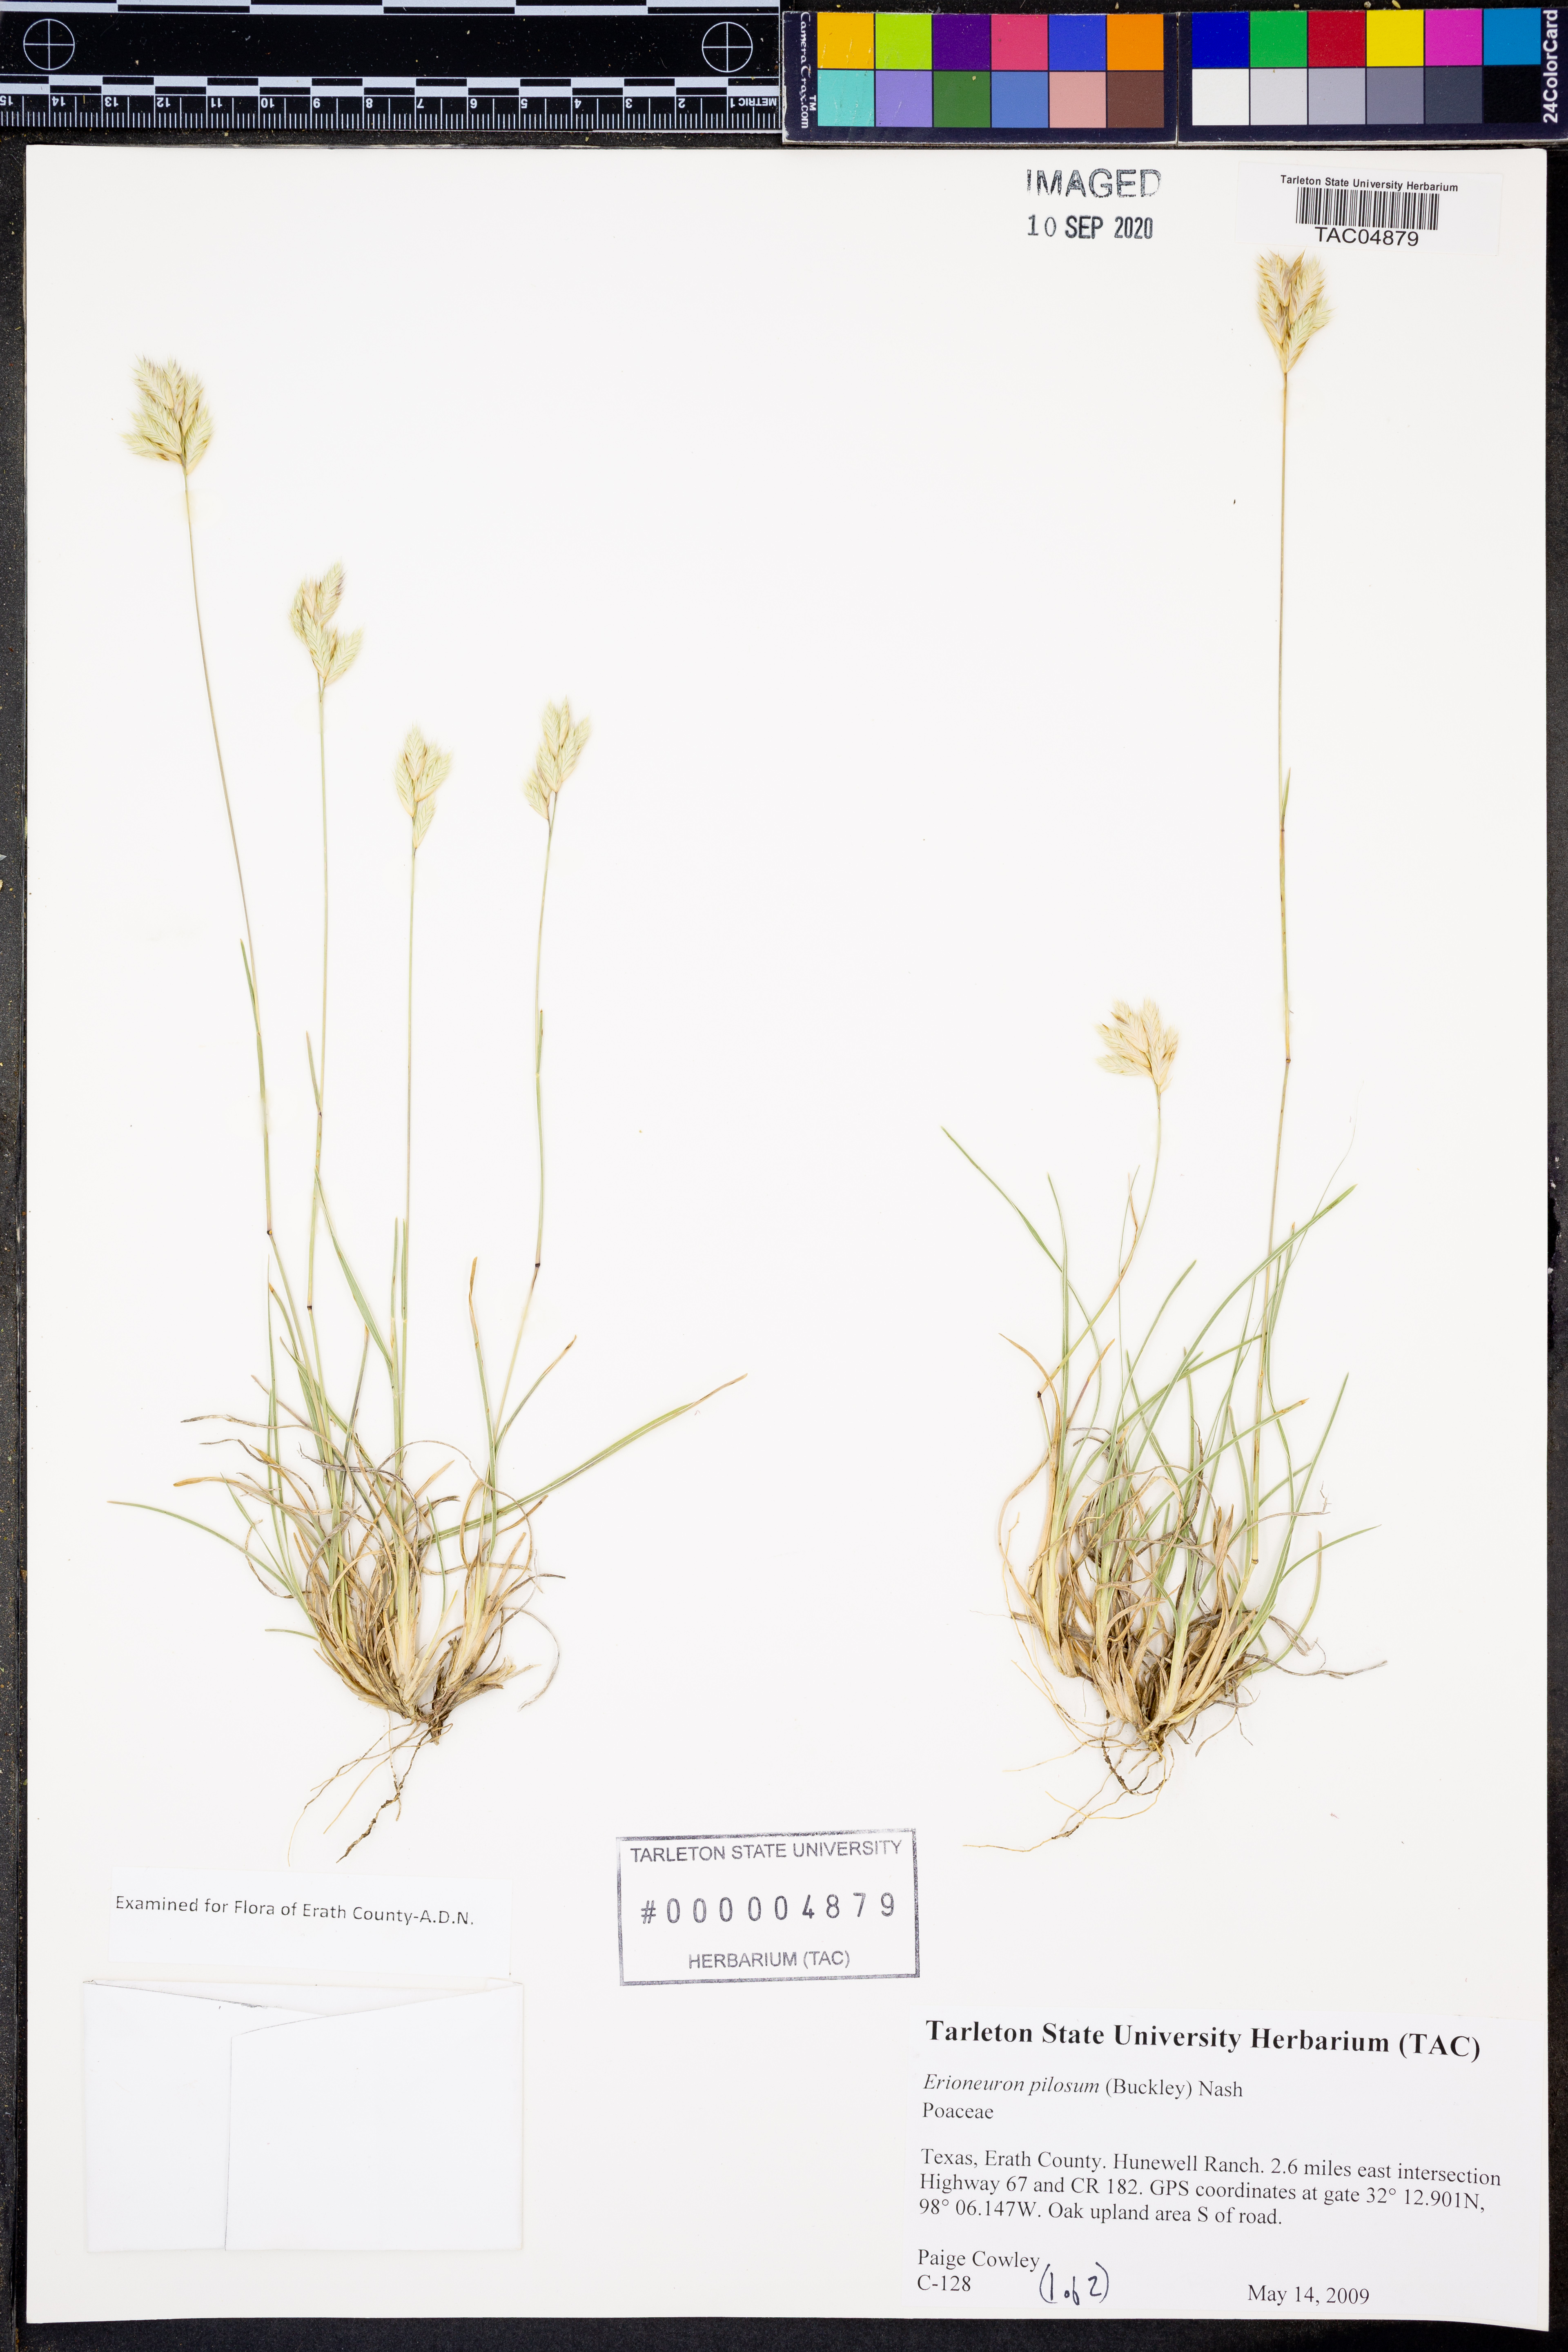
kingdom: Plantae
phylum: Tracheophyta
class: Liliopsida
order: Poales
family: Poaceae
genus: Erioneuron
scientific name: Erioneuron pilosum
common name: Hairy woolly grass
